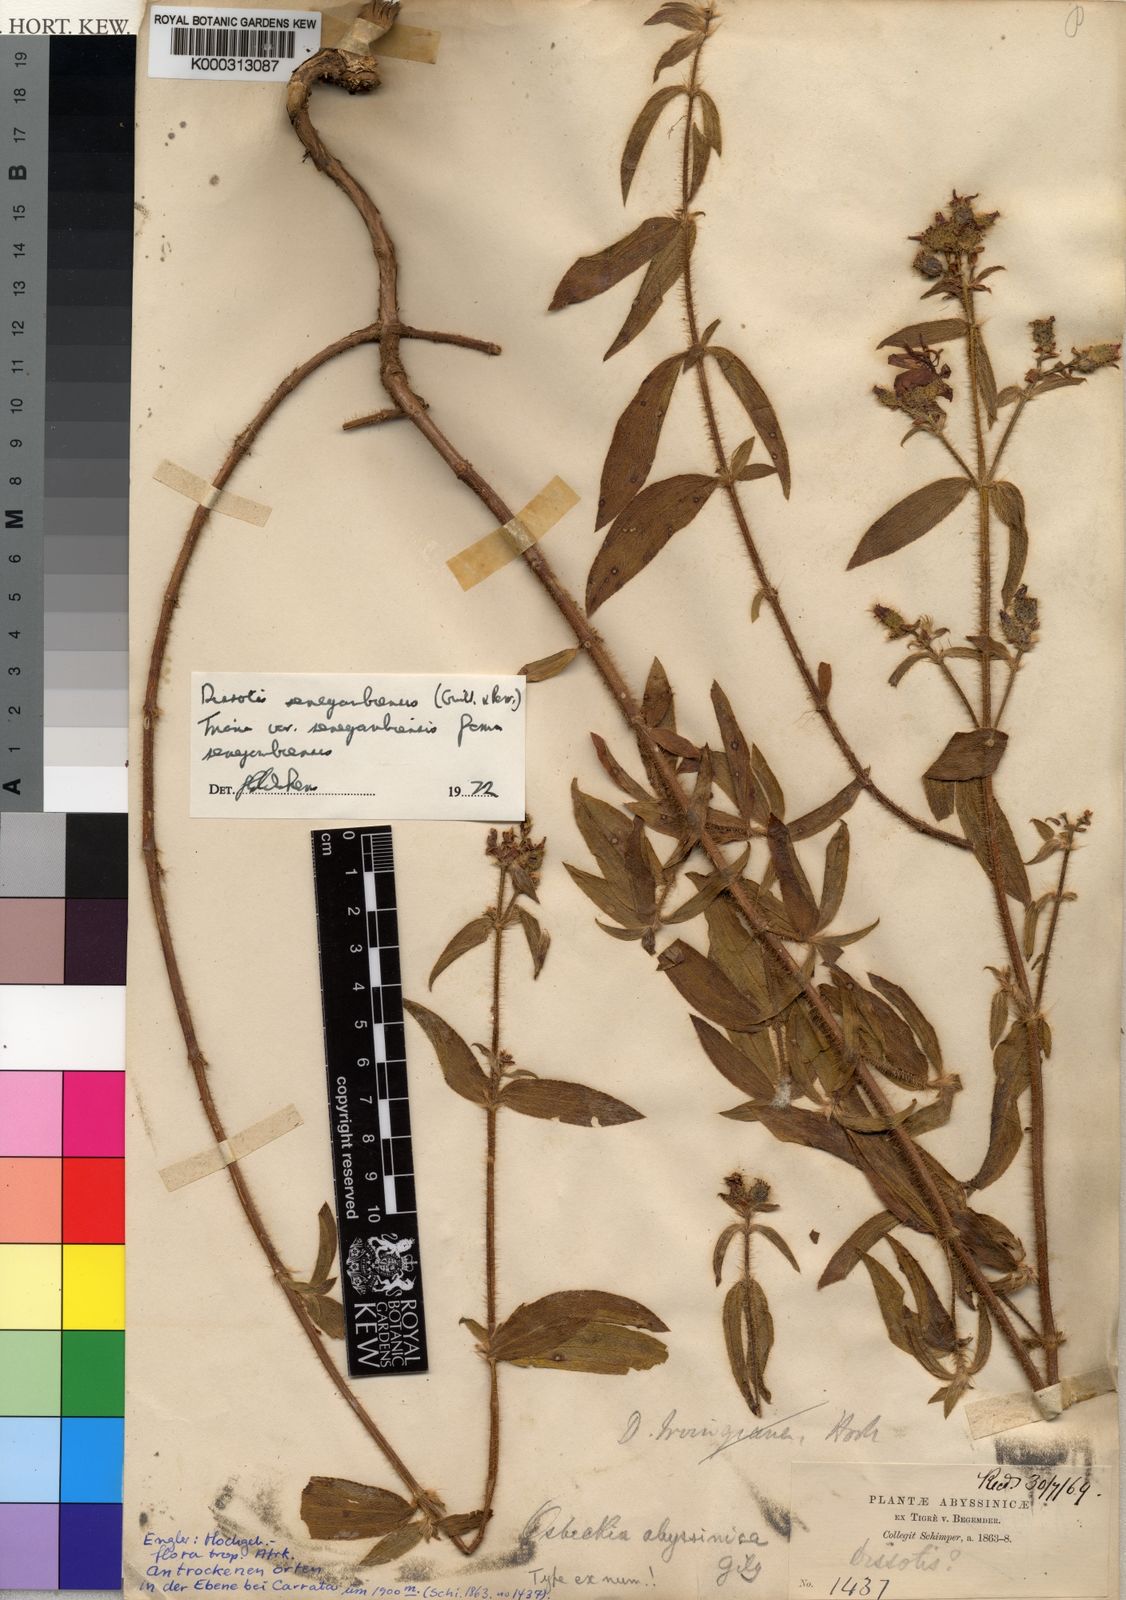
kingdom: Plantae
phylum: Tracheophyta
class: Magnoliopsida
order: Myrtales
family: Melastomataceae
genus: Antherotoma
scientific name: Antherotoma
